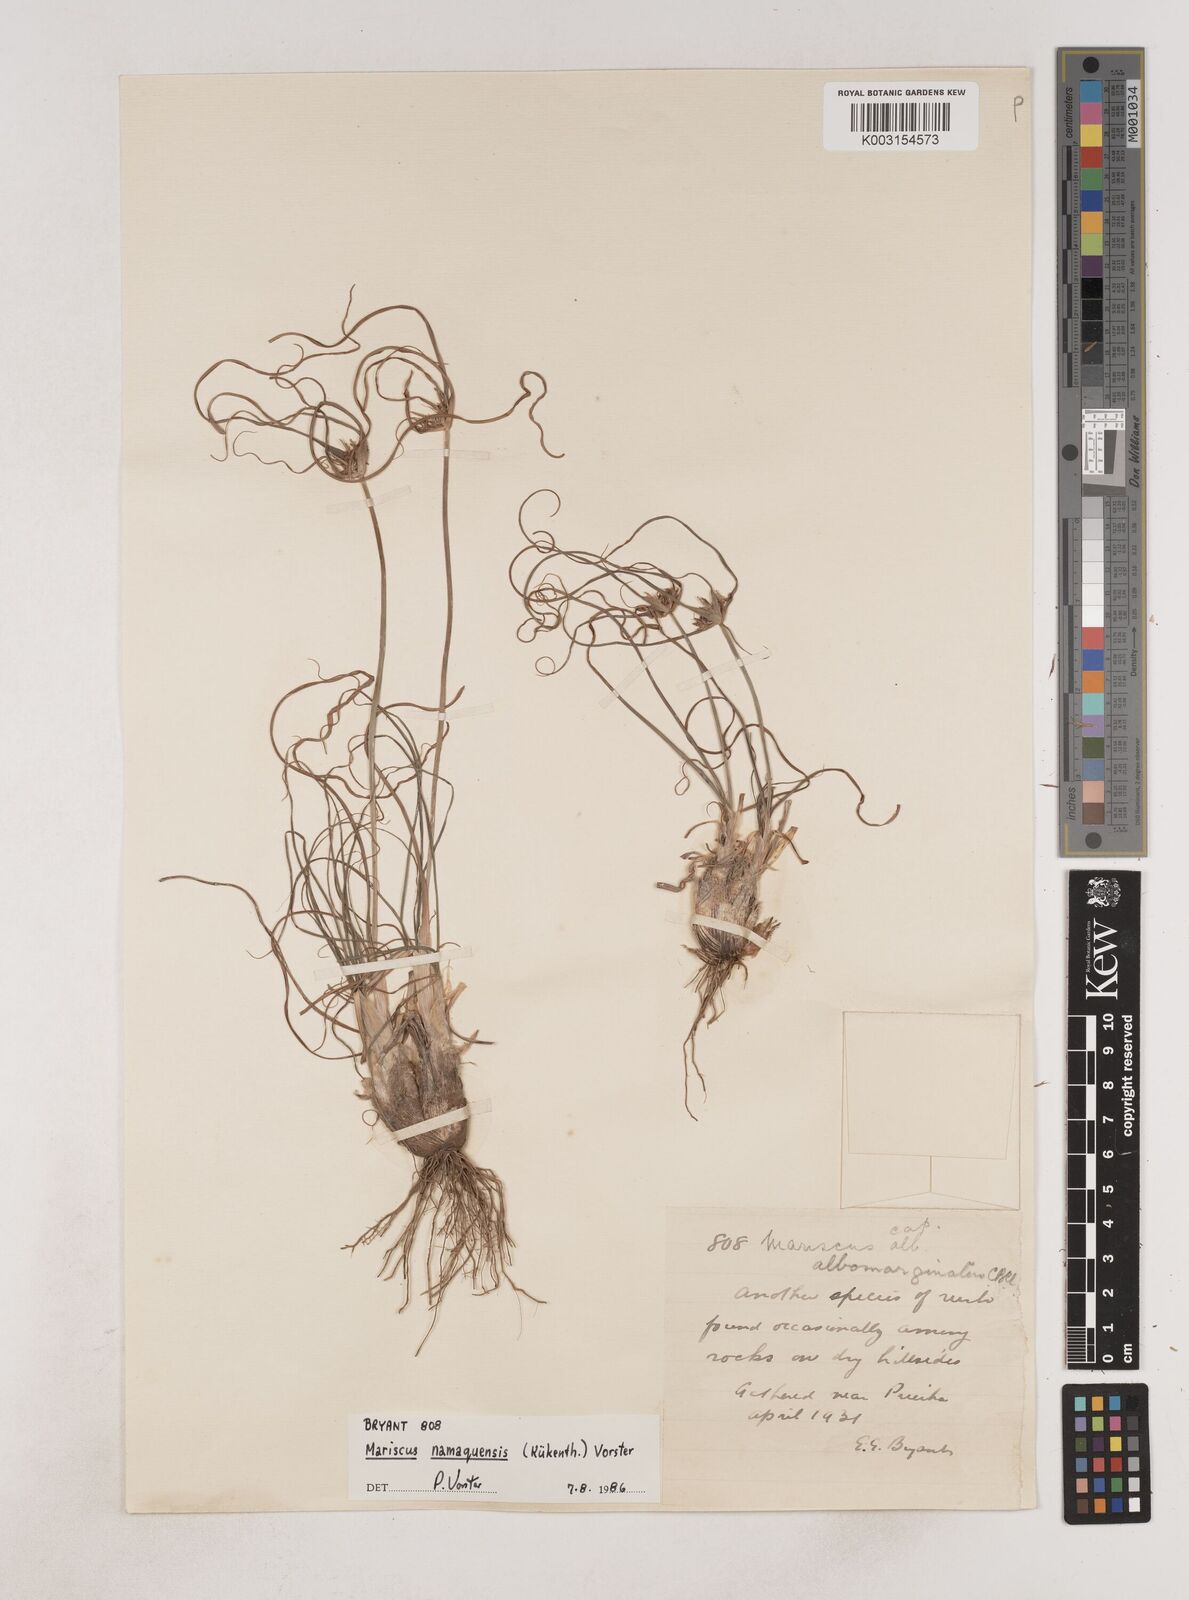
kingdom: Plantae
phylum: Tracheophyta
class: Liliopsida
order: Poales
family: Cyperaceae
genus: Cyperus
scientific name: Cyperus indecorus
